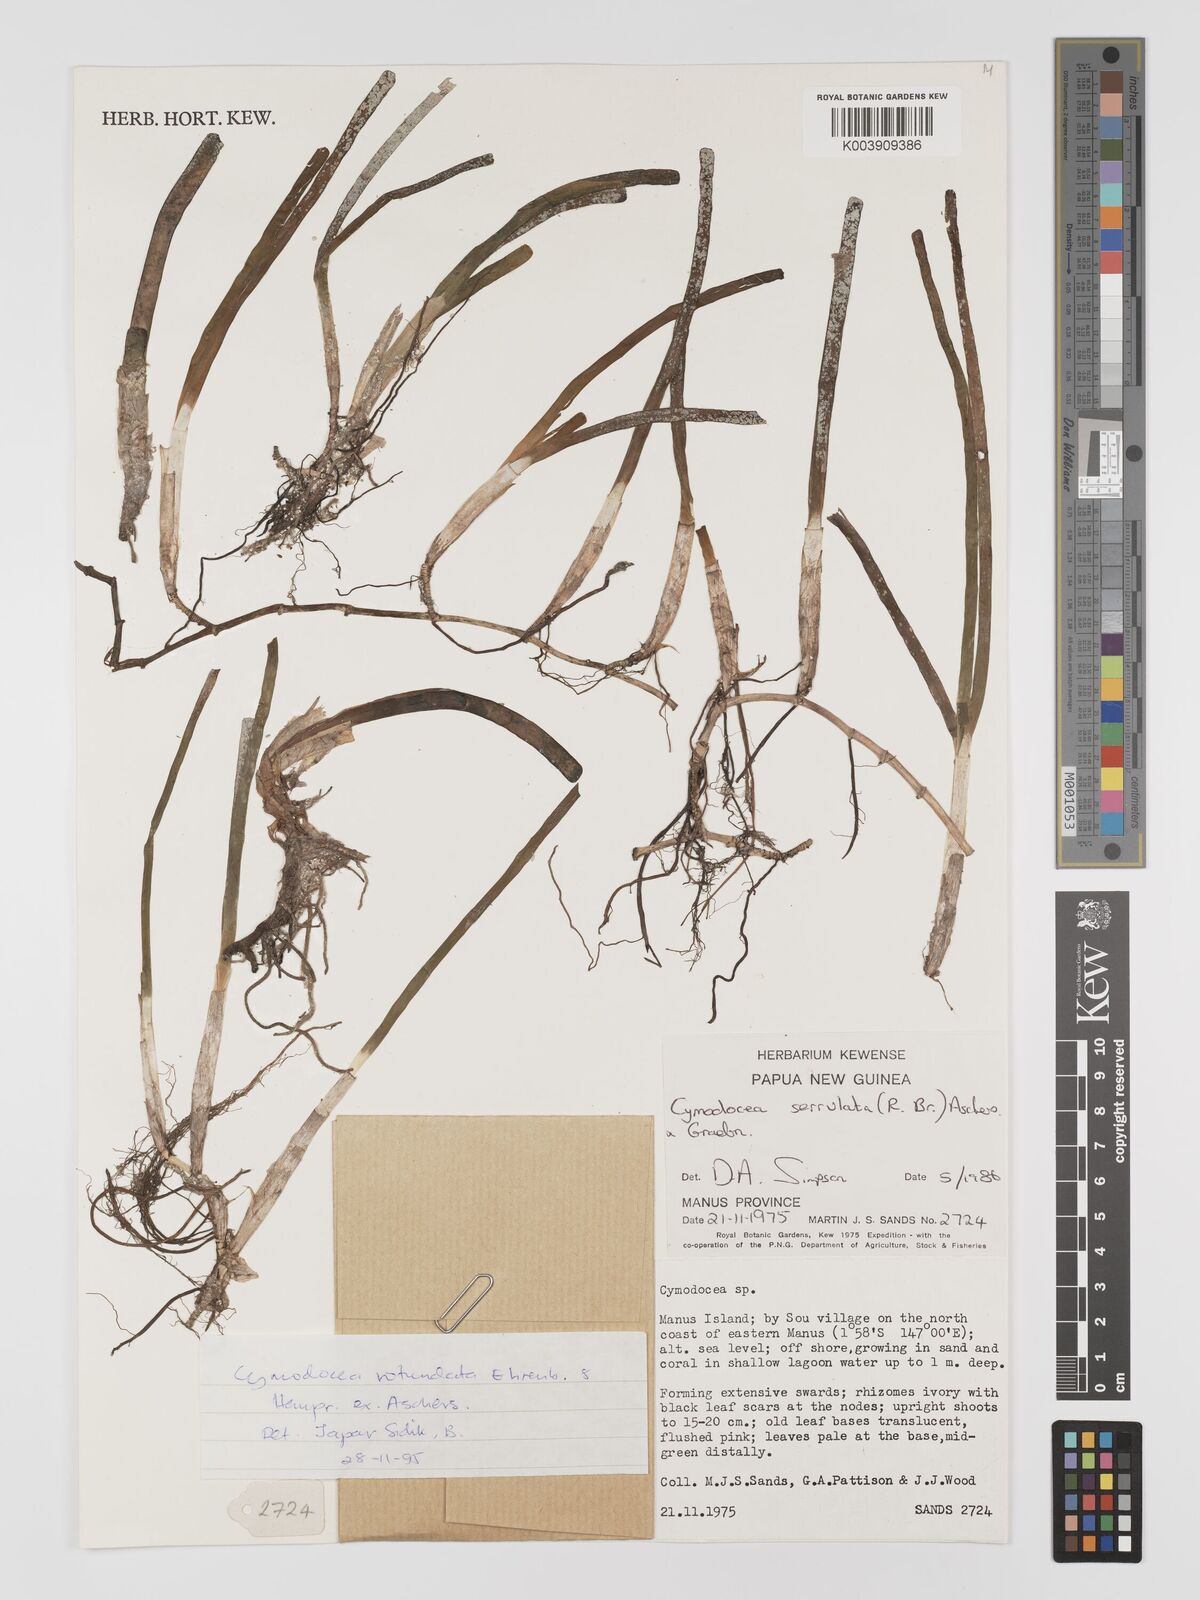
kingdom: Plantae
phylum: Tracheophyta
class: Liliopsida
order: Alismatales
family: Cymodoceaceae
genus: Oceana
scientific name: Oceana serrulata
